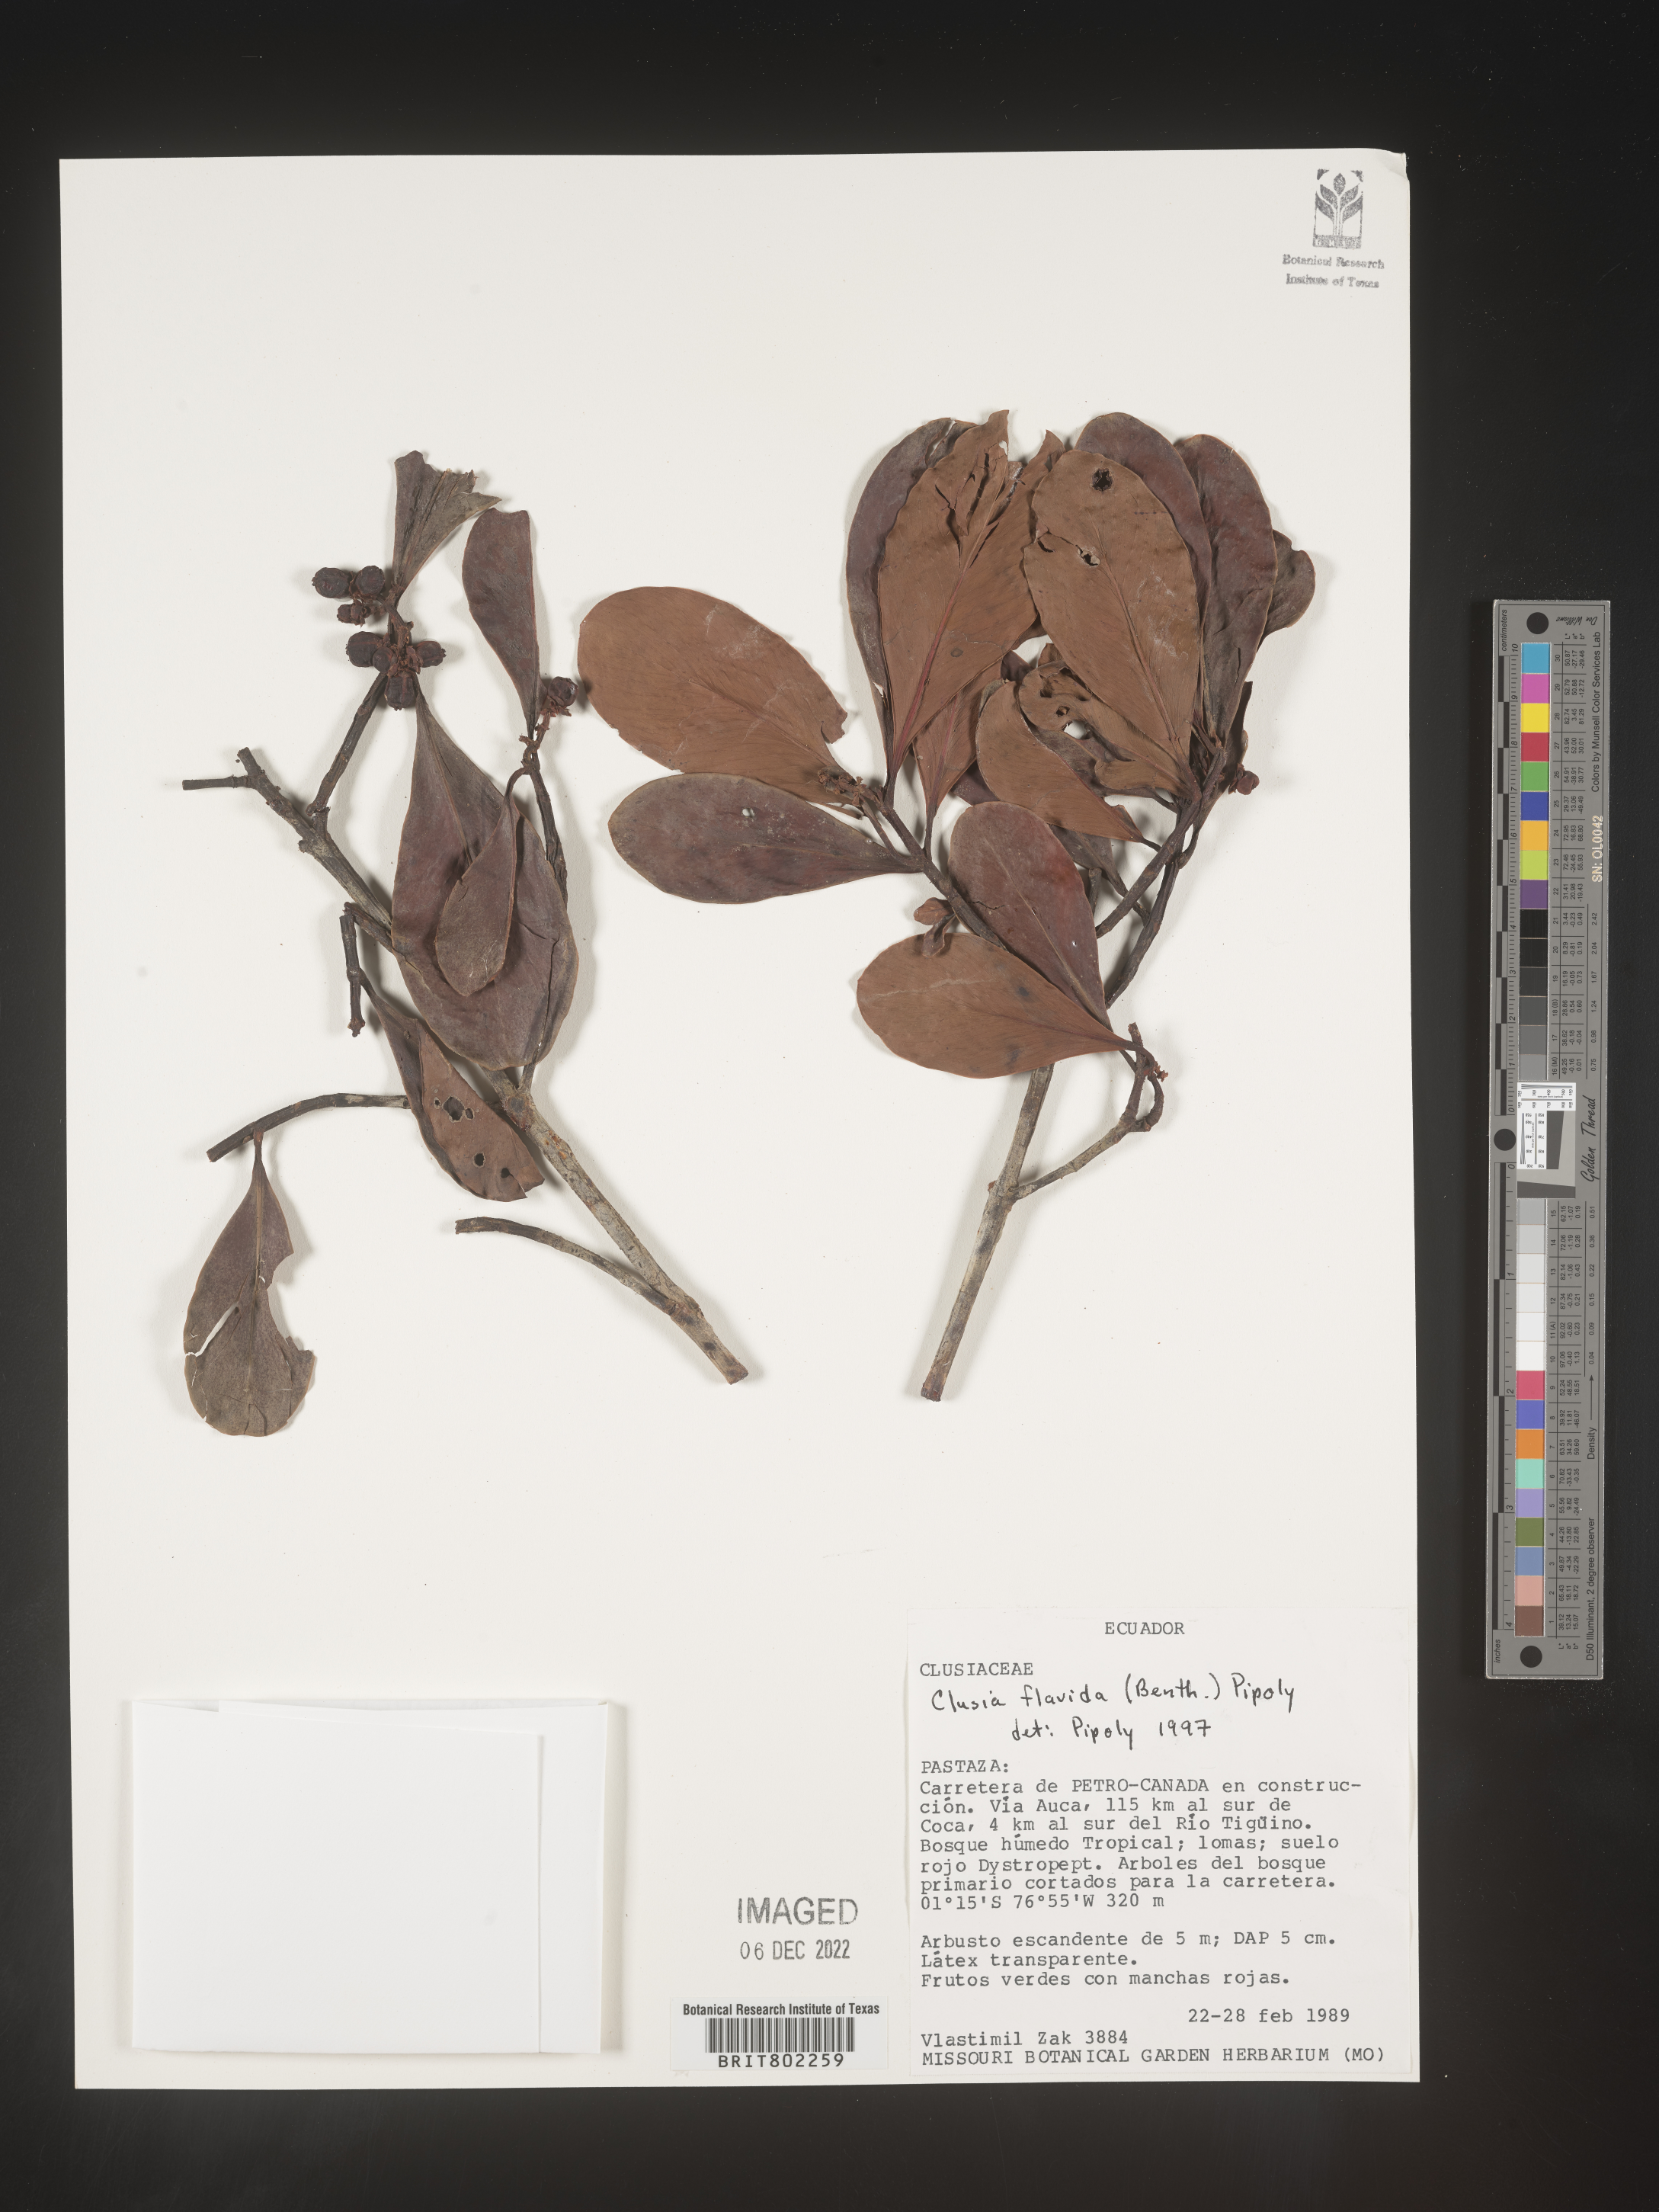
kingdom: Plantae
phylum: Tracheophyta
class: Magnoliopsida
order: Malpighiales
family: Clusiaceae
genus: Clusia
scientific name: Clusia flavida
